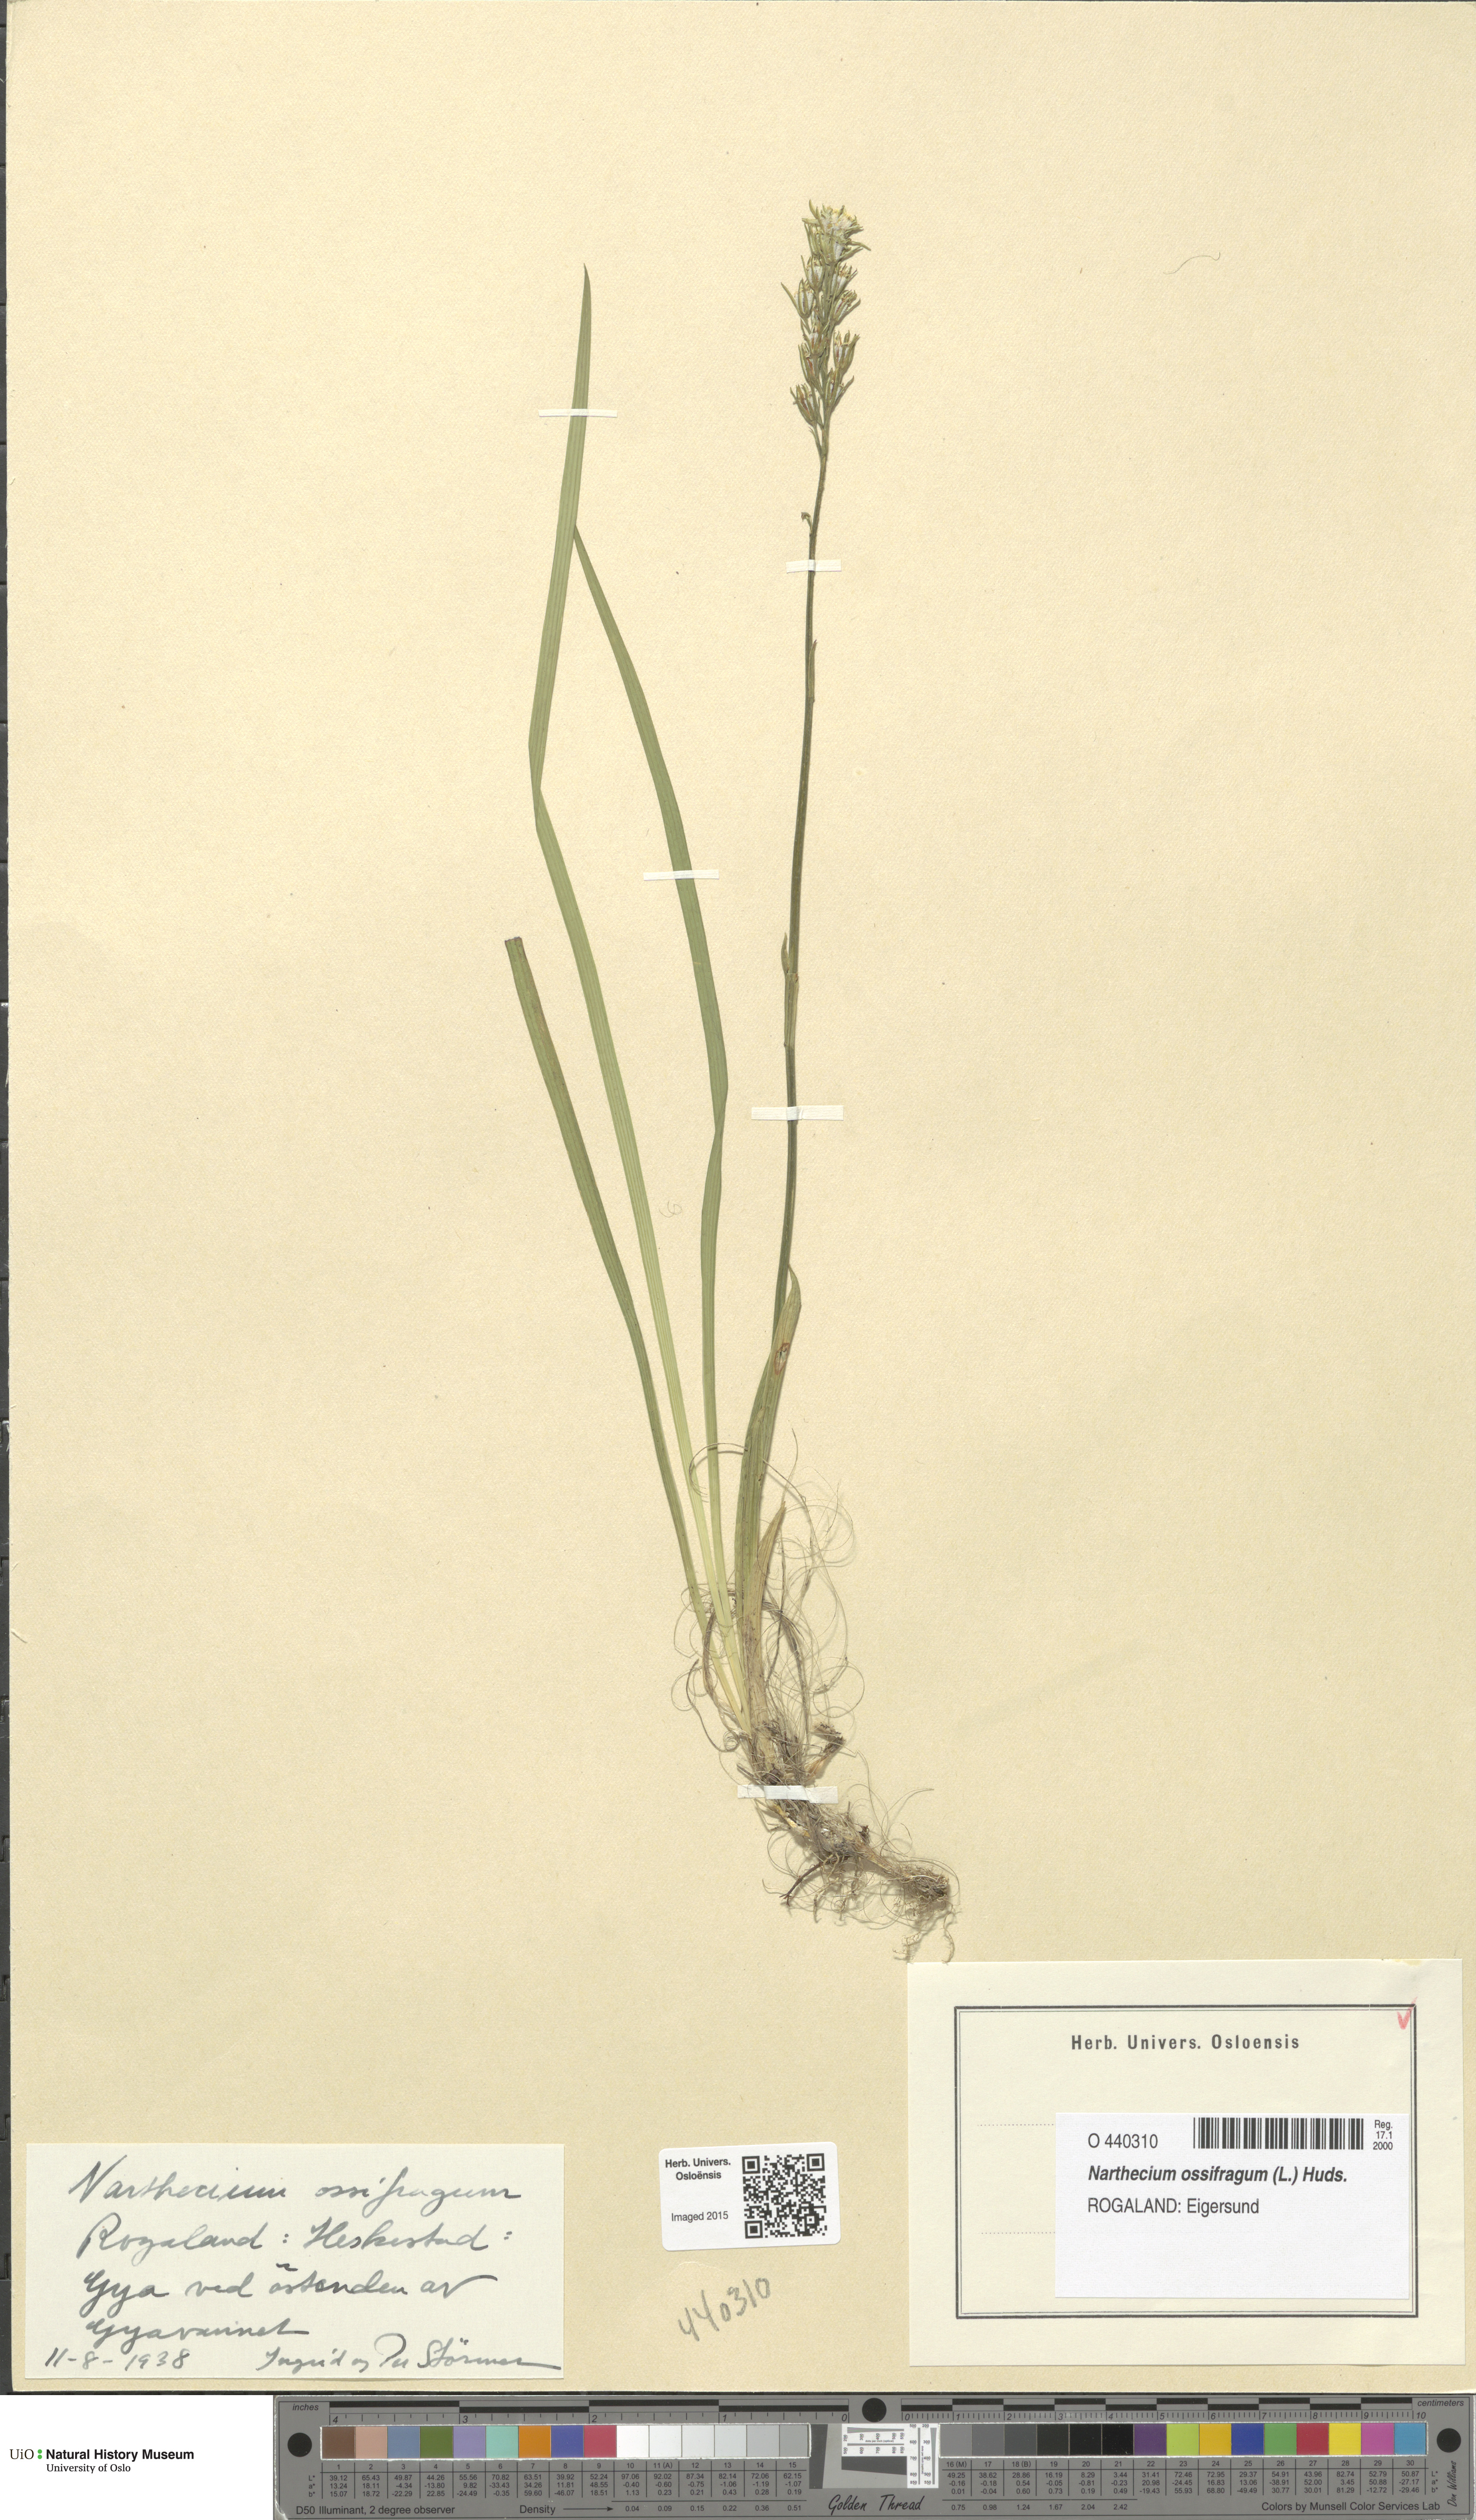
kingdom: Plantae
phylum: Tracheophyta
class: Liliopsida
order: Dioscoreales
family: Nartheciaceae
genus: Narthecium
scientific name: Narthecium ossifragum
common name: Bog asphodel
